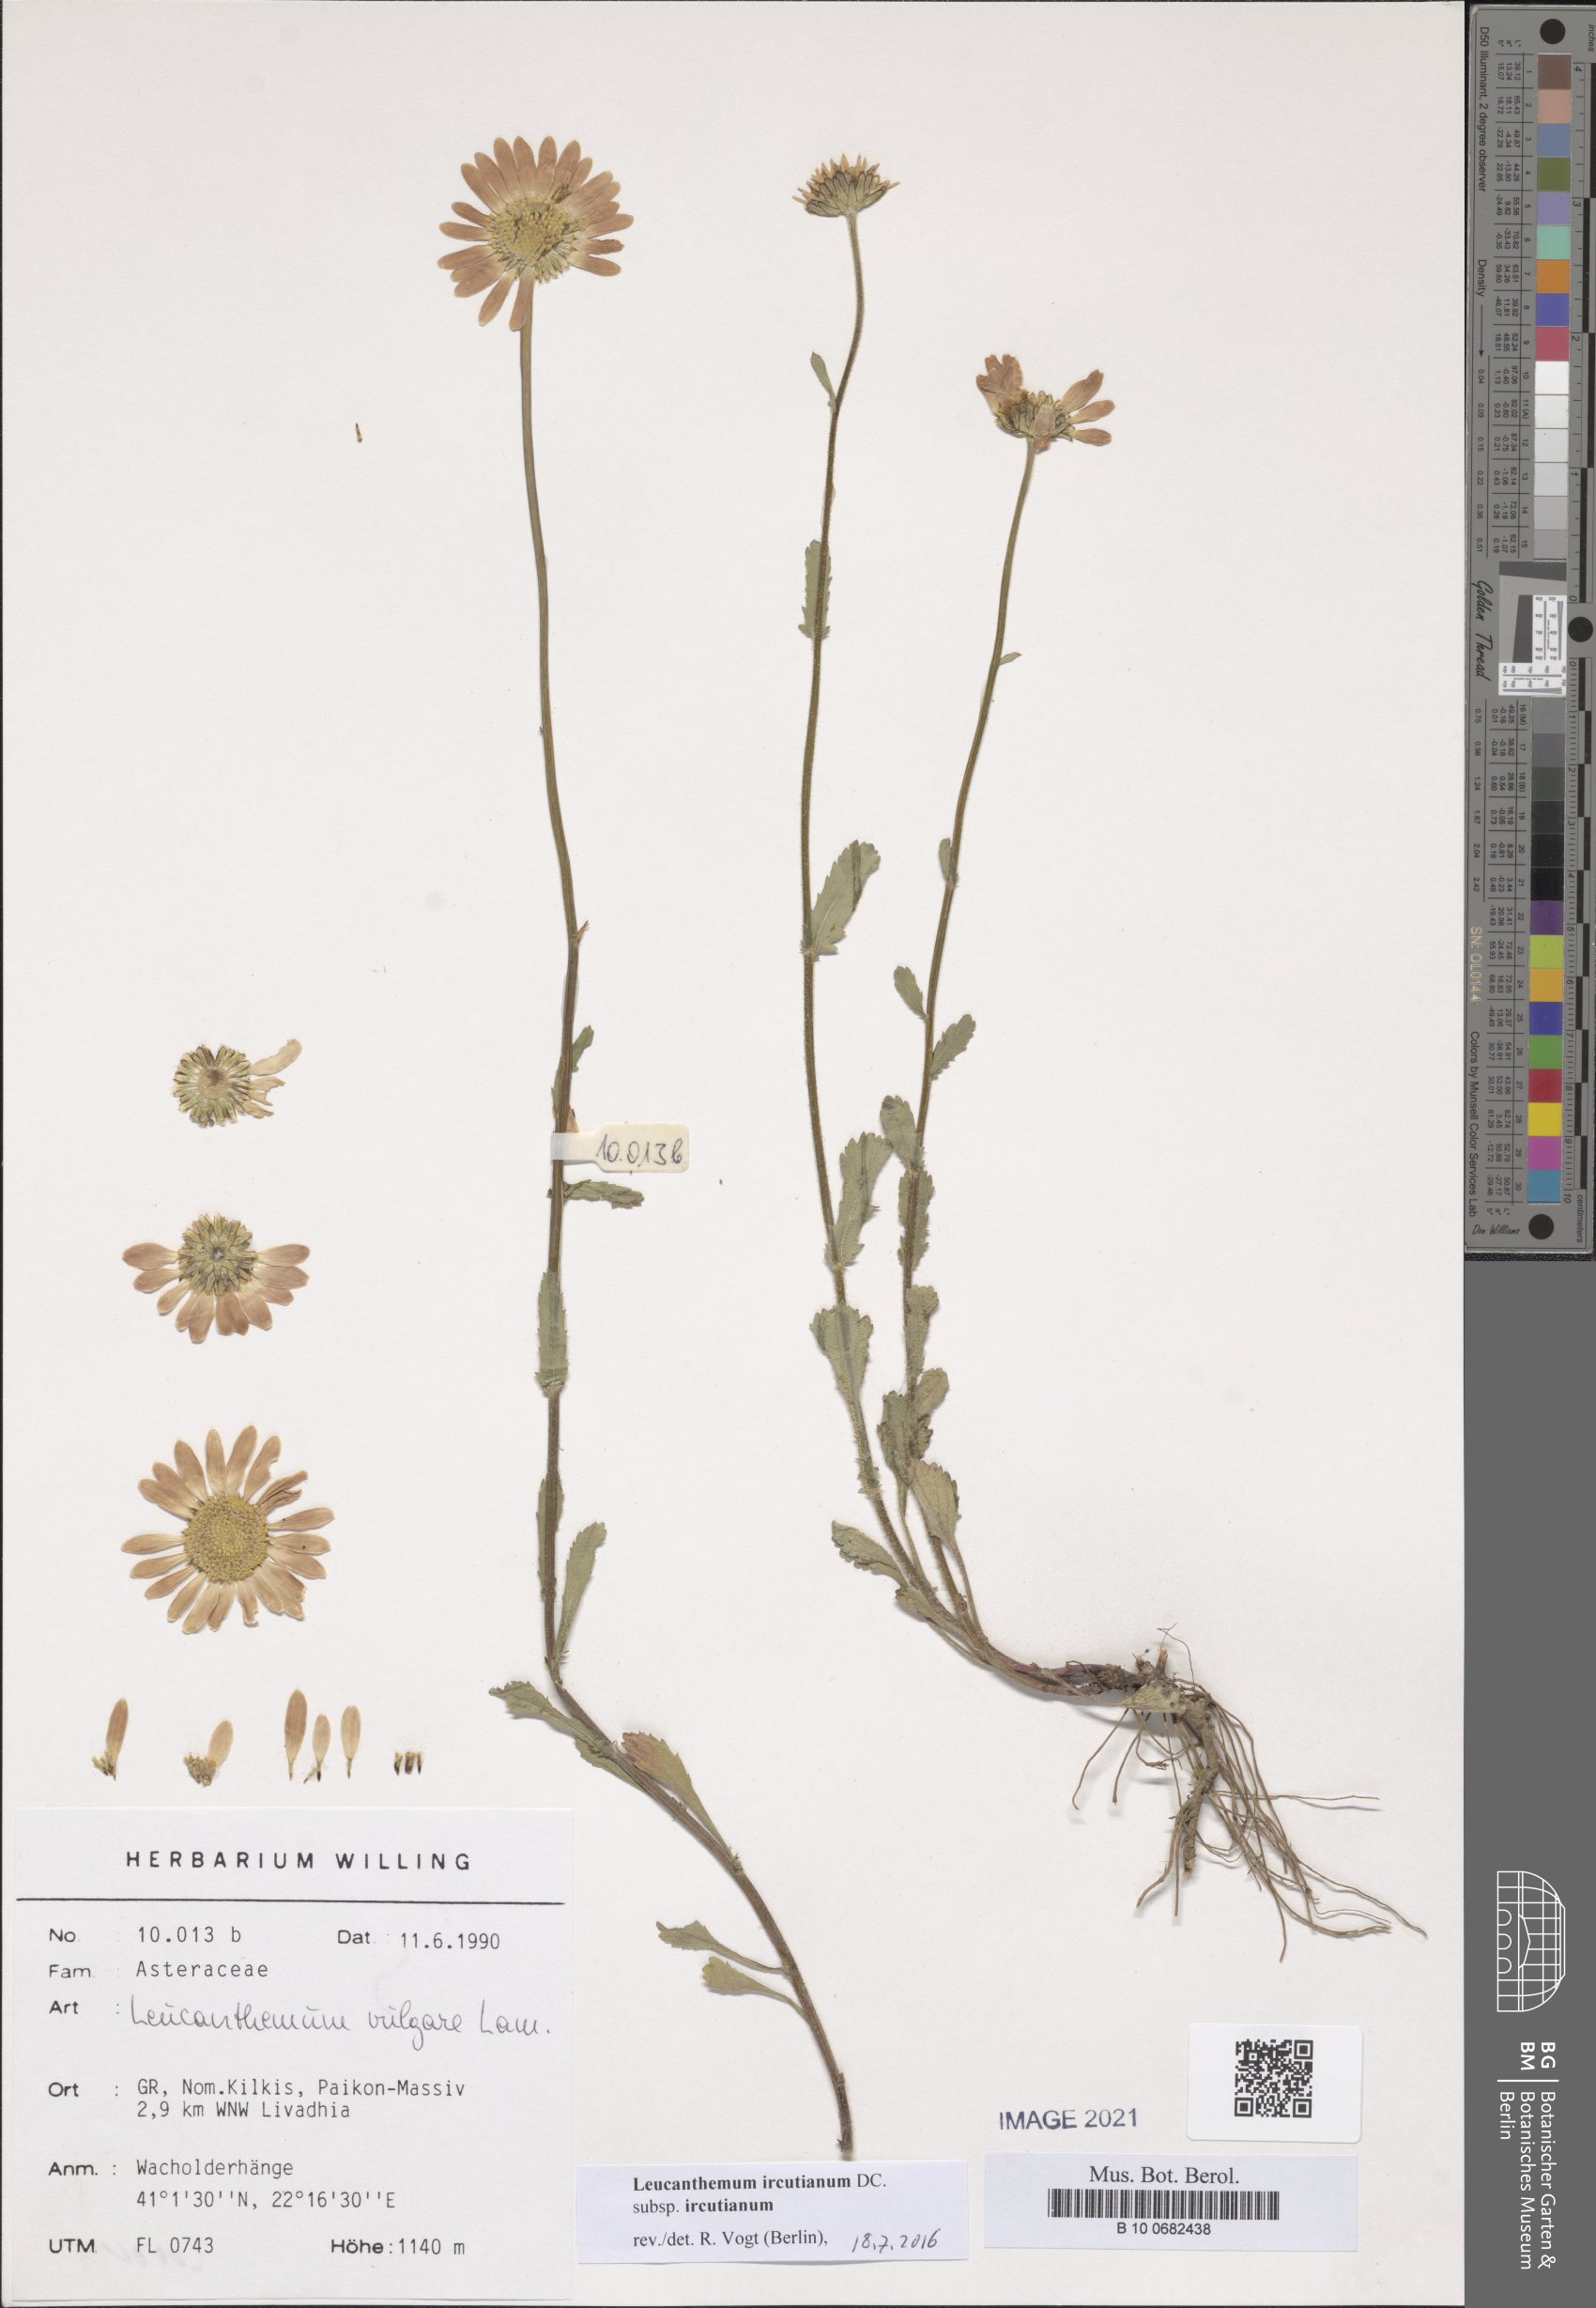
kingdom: Plantae
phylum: Tracheophyta
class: Magnoliopsida
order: Asterales
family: Asteraceae
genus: Leucanthemum
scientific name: Leucanthemum ircutianum
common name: Daisy
